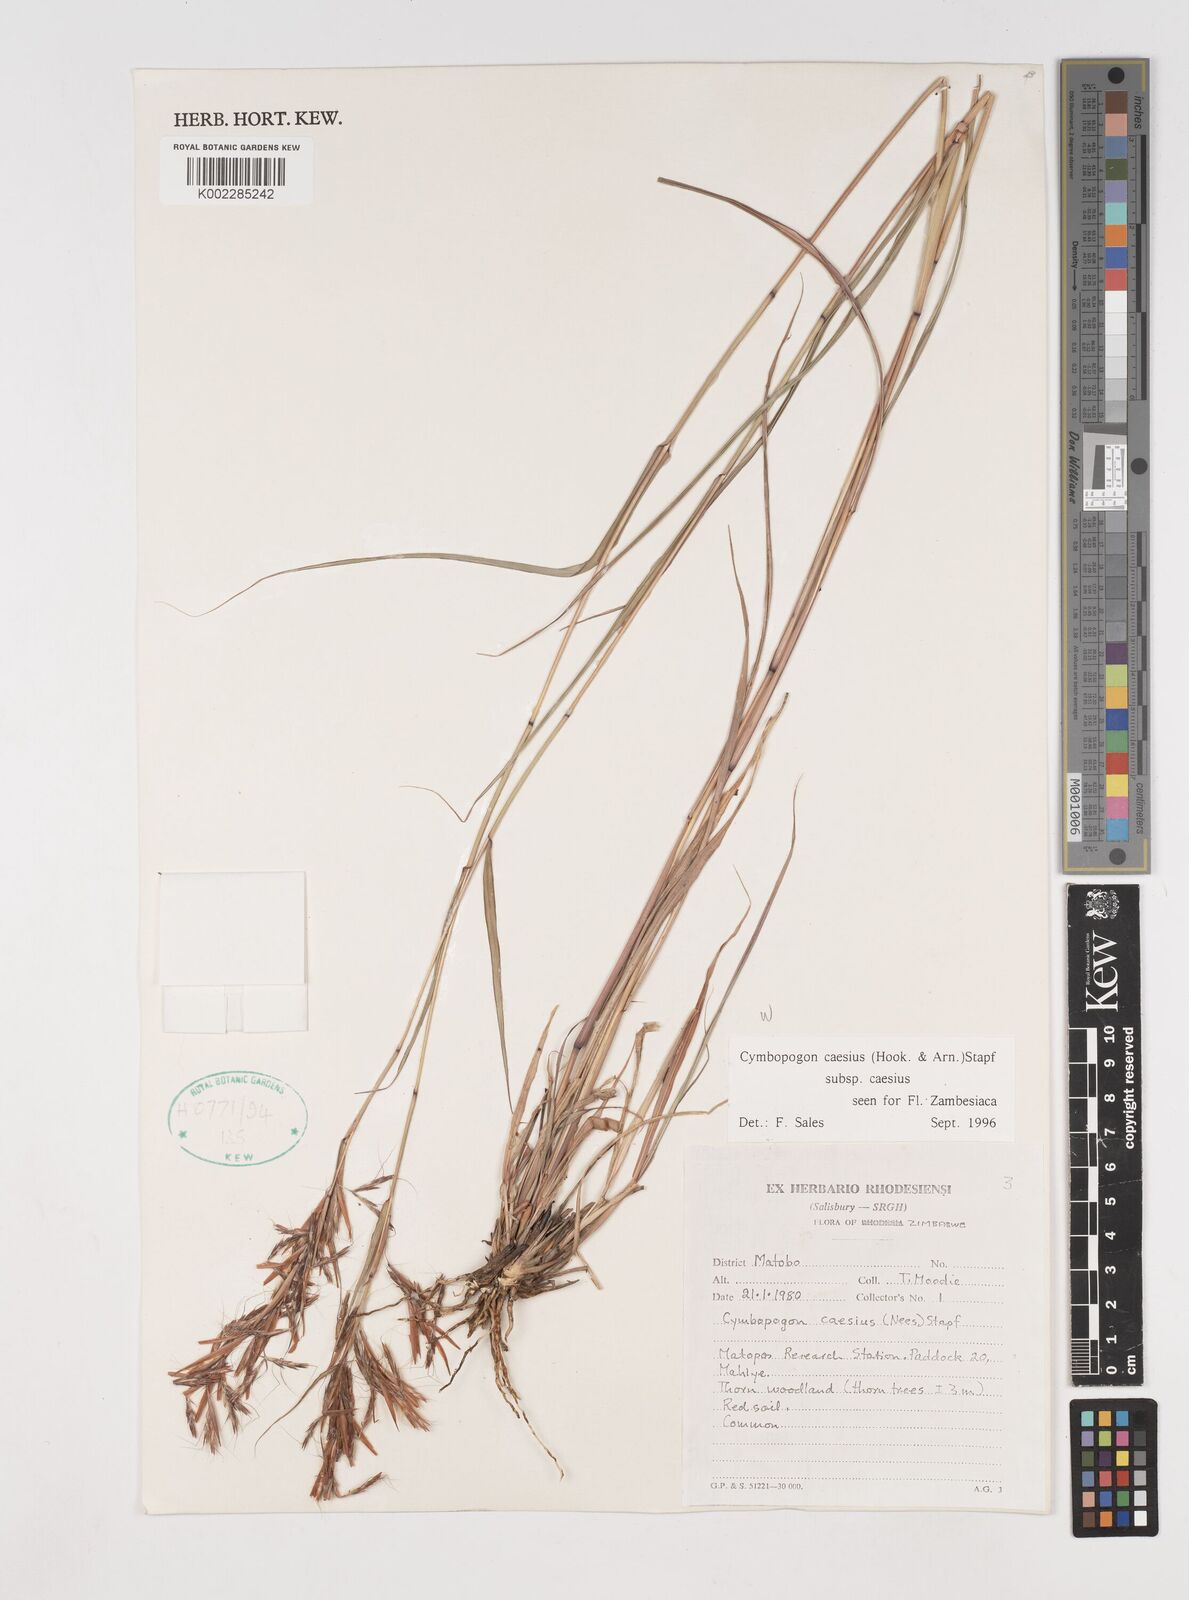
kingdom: Plantae
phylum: Tracheophyta
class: Liliopsida
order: Poales
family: Poaceae
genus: Cymbopogon
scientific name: Cymbopogon caesius
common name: Kachi grass
